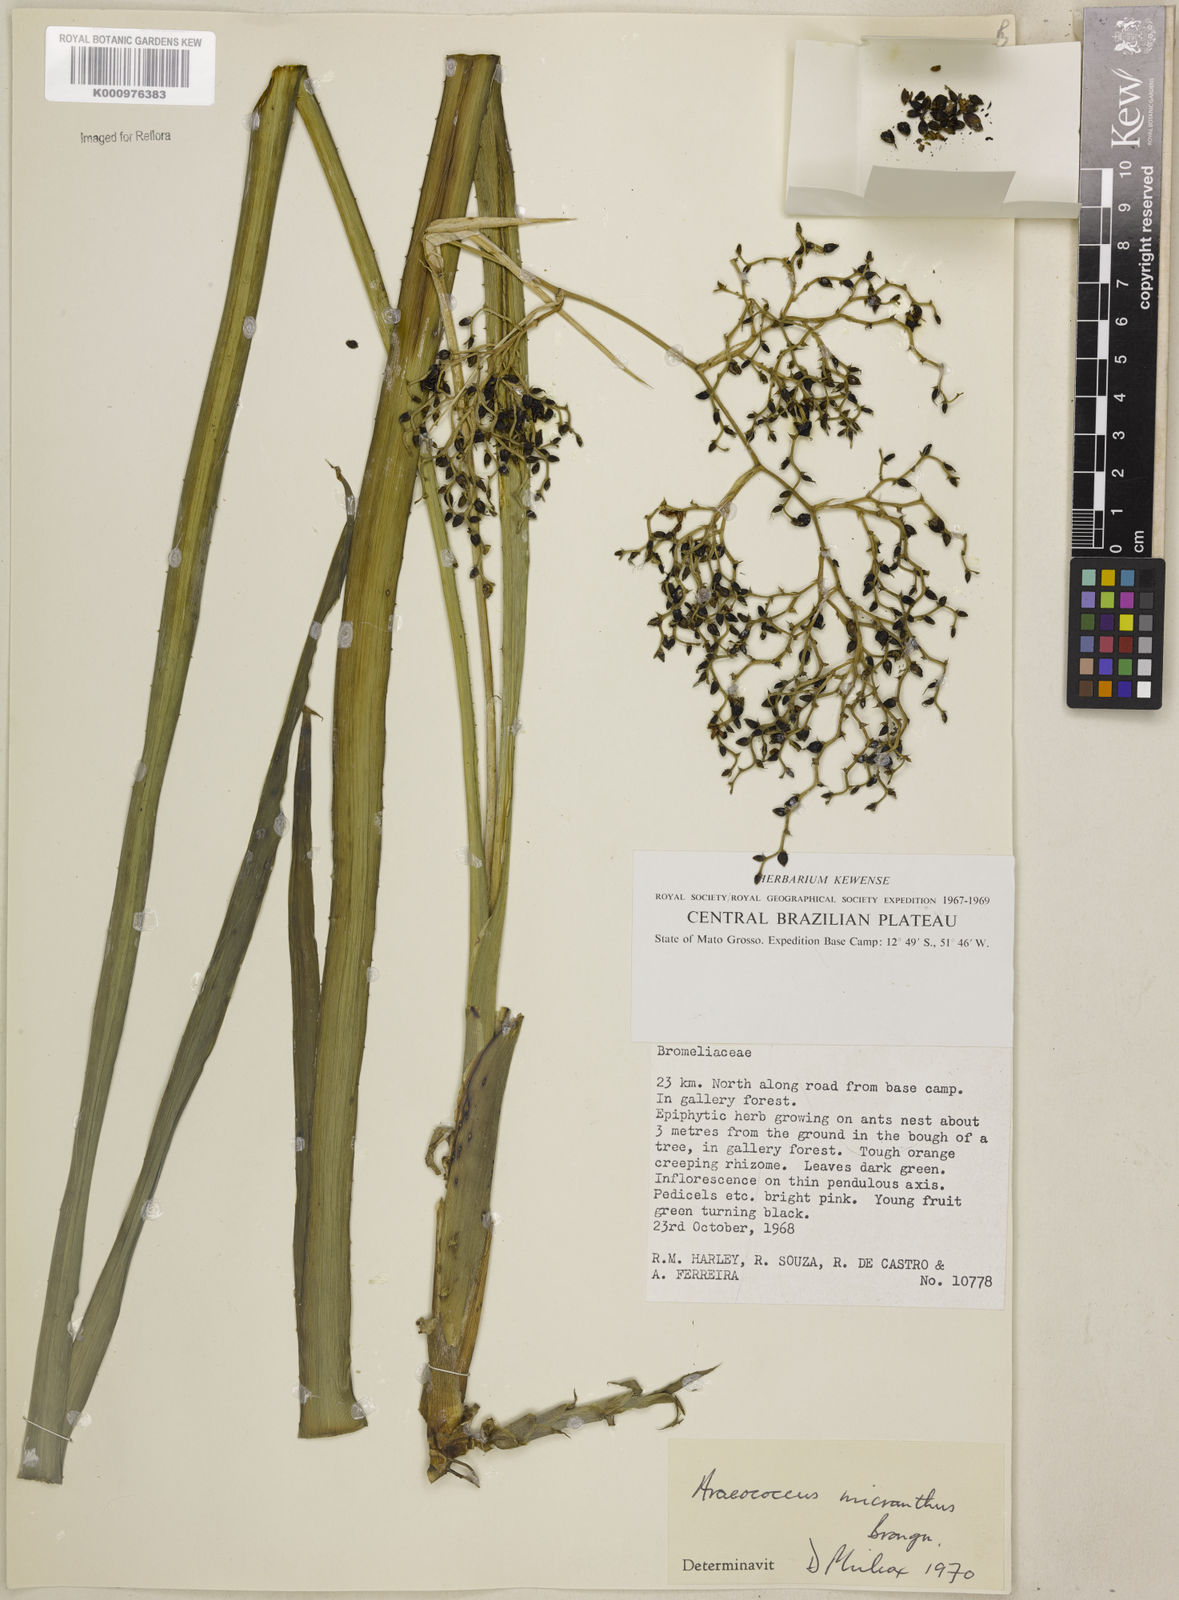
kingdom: Plantae
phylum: Tracheophyta
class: Liliopsida
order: Poales
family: Bromeliaceae
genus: Araeococcus
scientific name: Araeococcus micranthus
